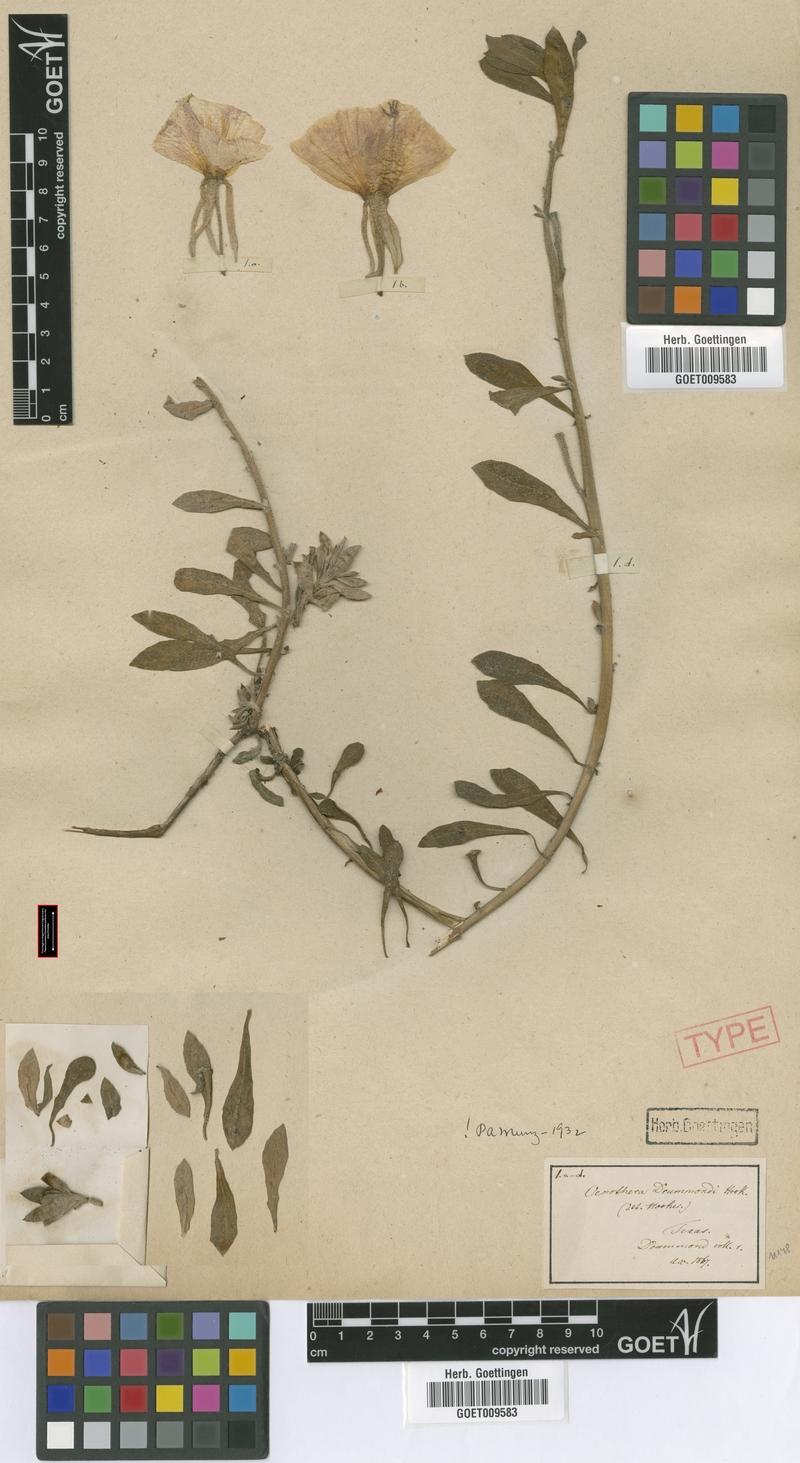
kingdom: Plantae
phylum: Tracheophyta
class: Magnoliopsida
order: Myrtales
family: Onagraceae
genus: Oenothera
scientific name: Oenothera drummondii
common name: Beach evening-primrose
